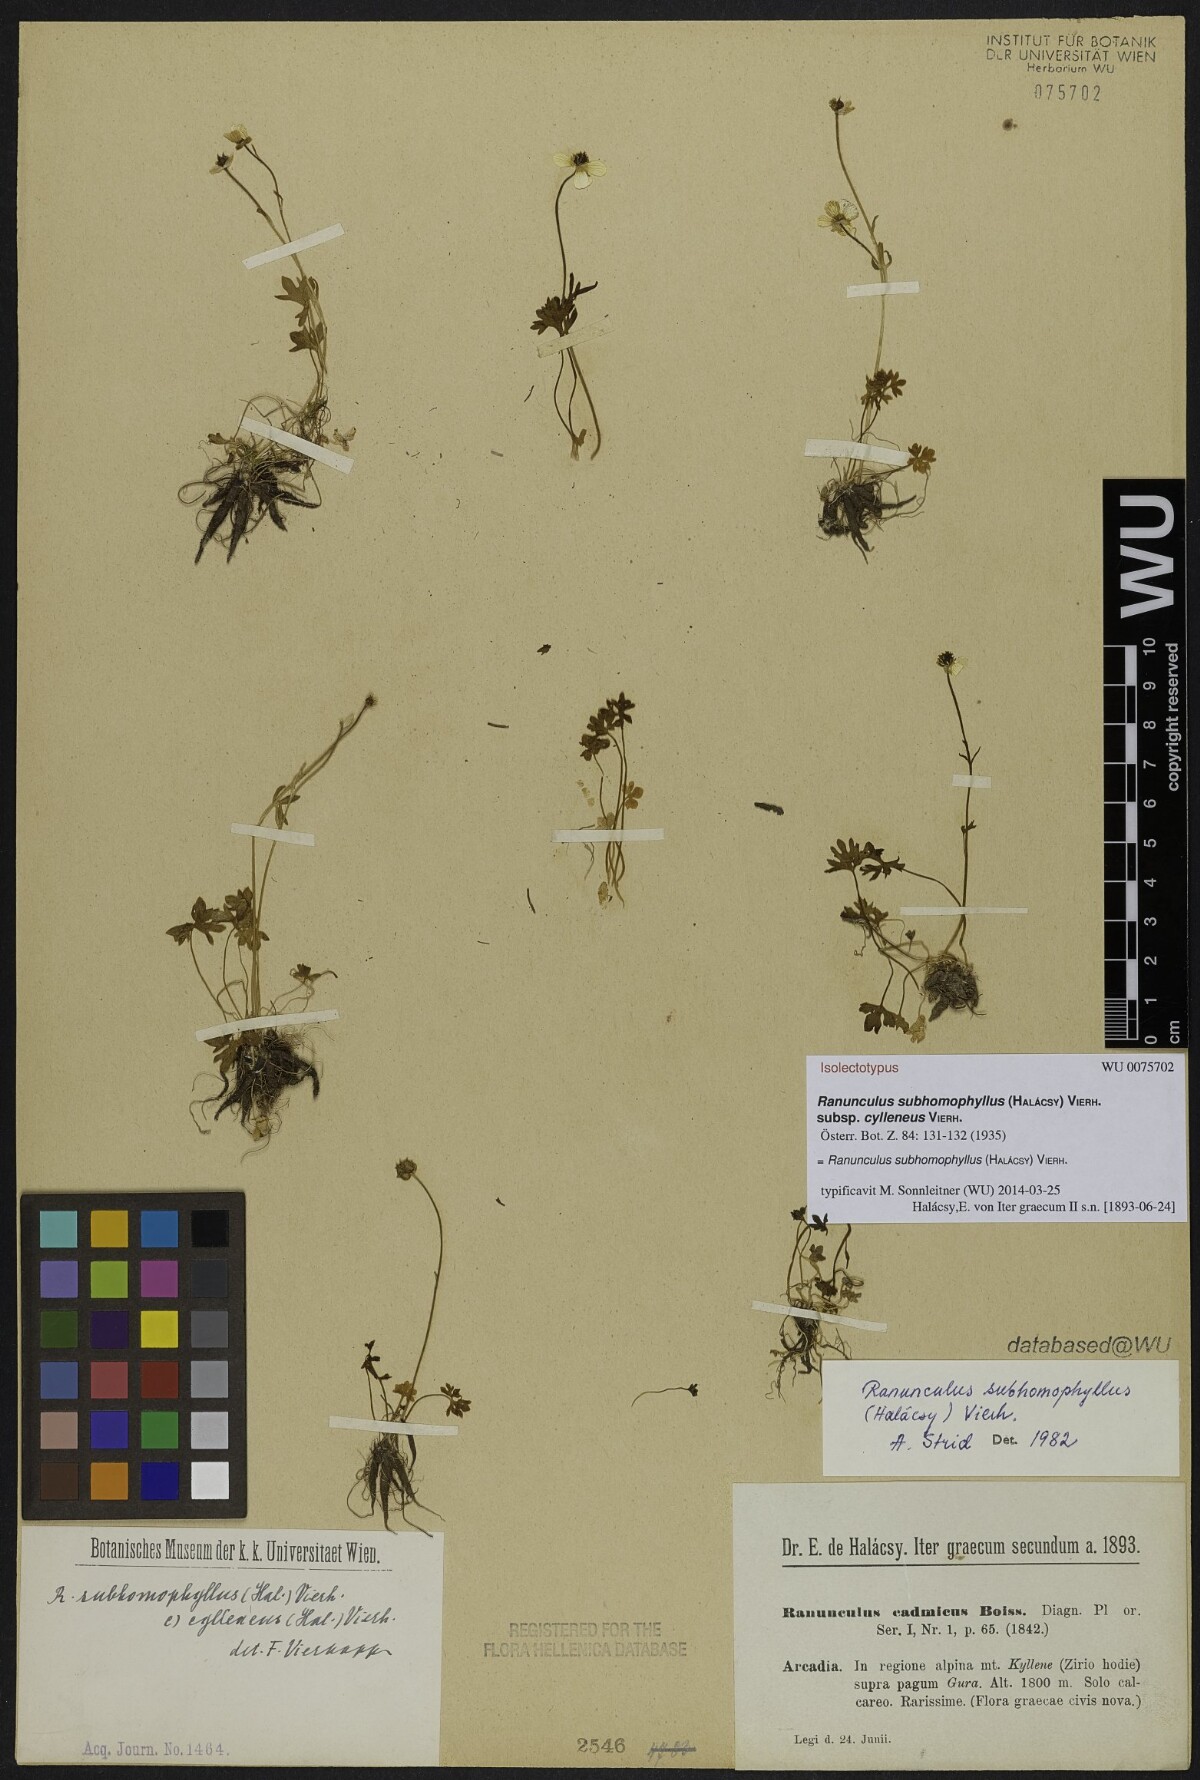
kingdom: Plantae
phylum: Tracheophyta
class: Magnoliopsida
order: Ranunculales
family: Ranunculaceae
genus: Ranunculus
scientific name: Ranunculus subhomophyllus
